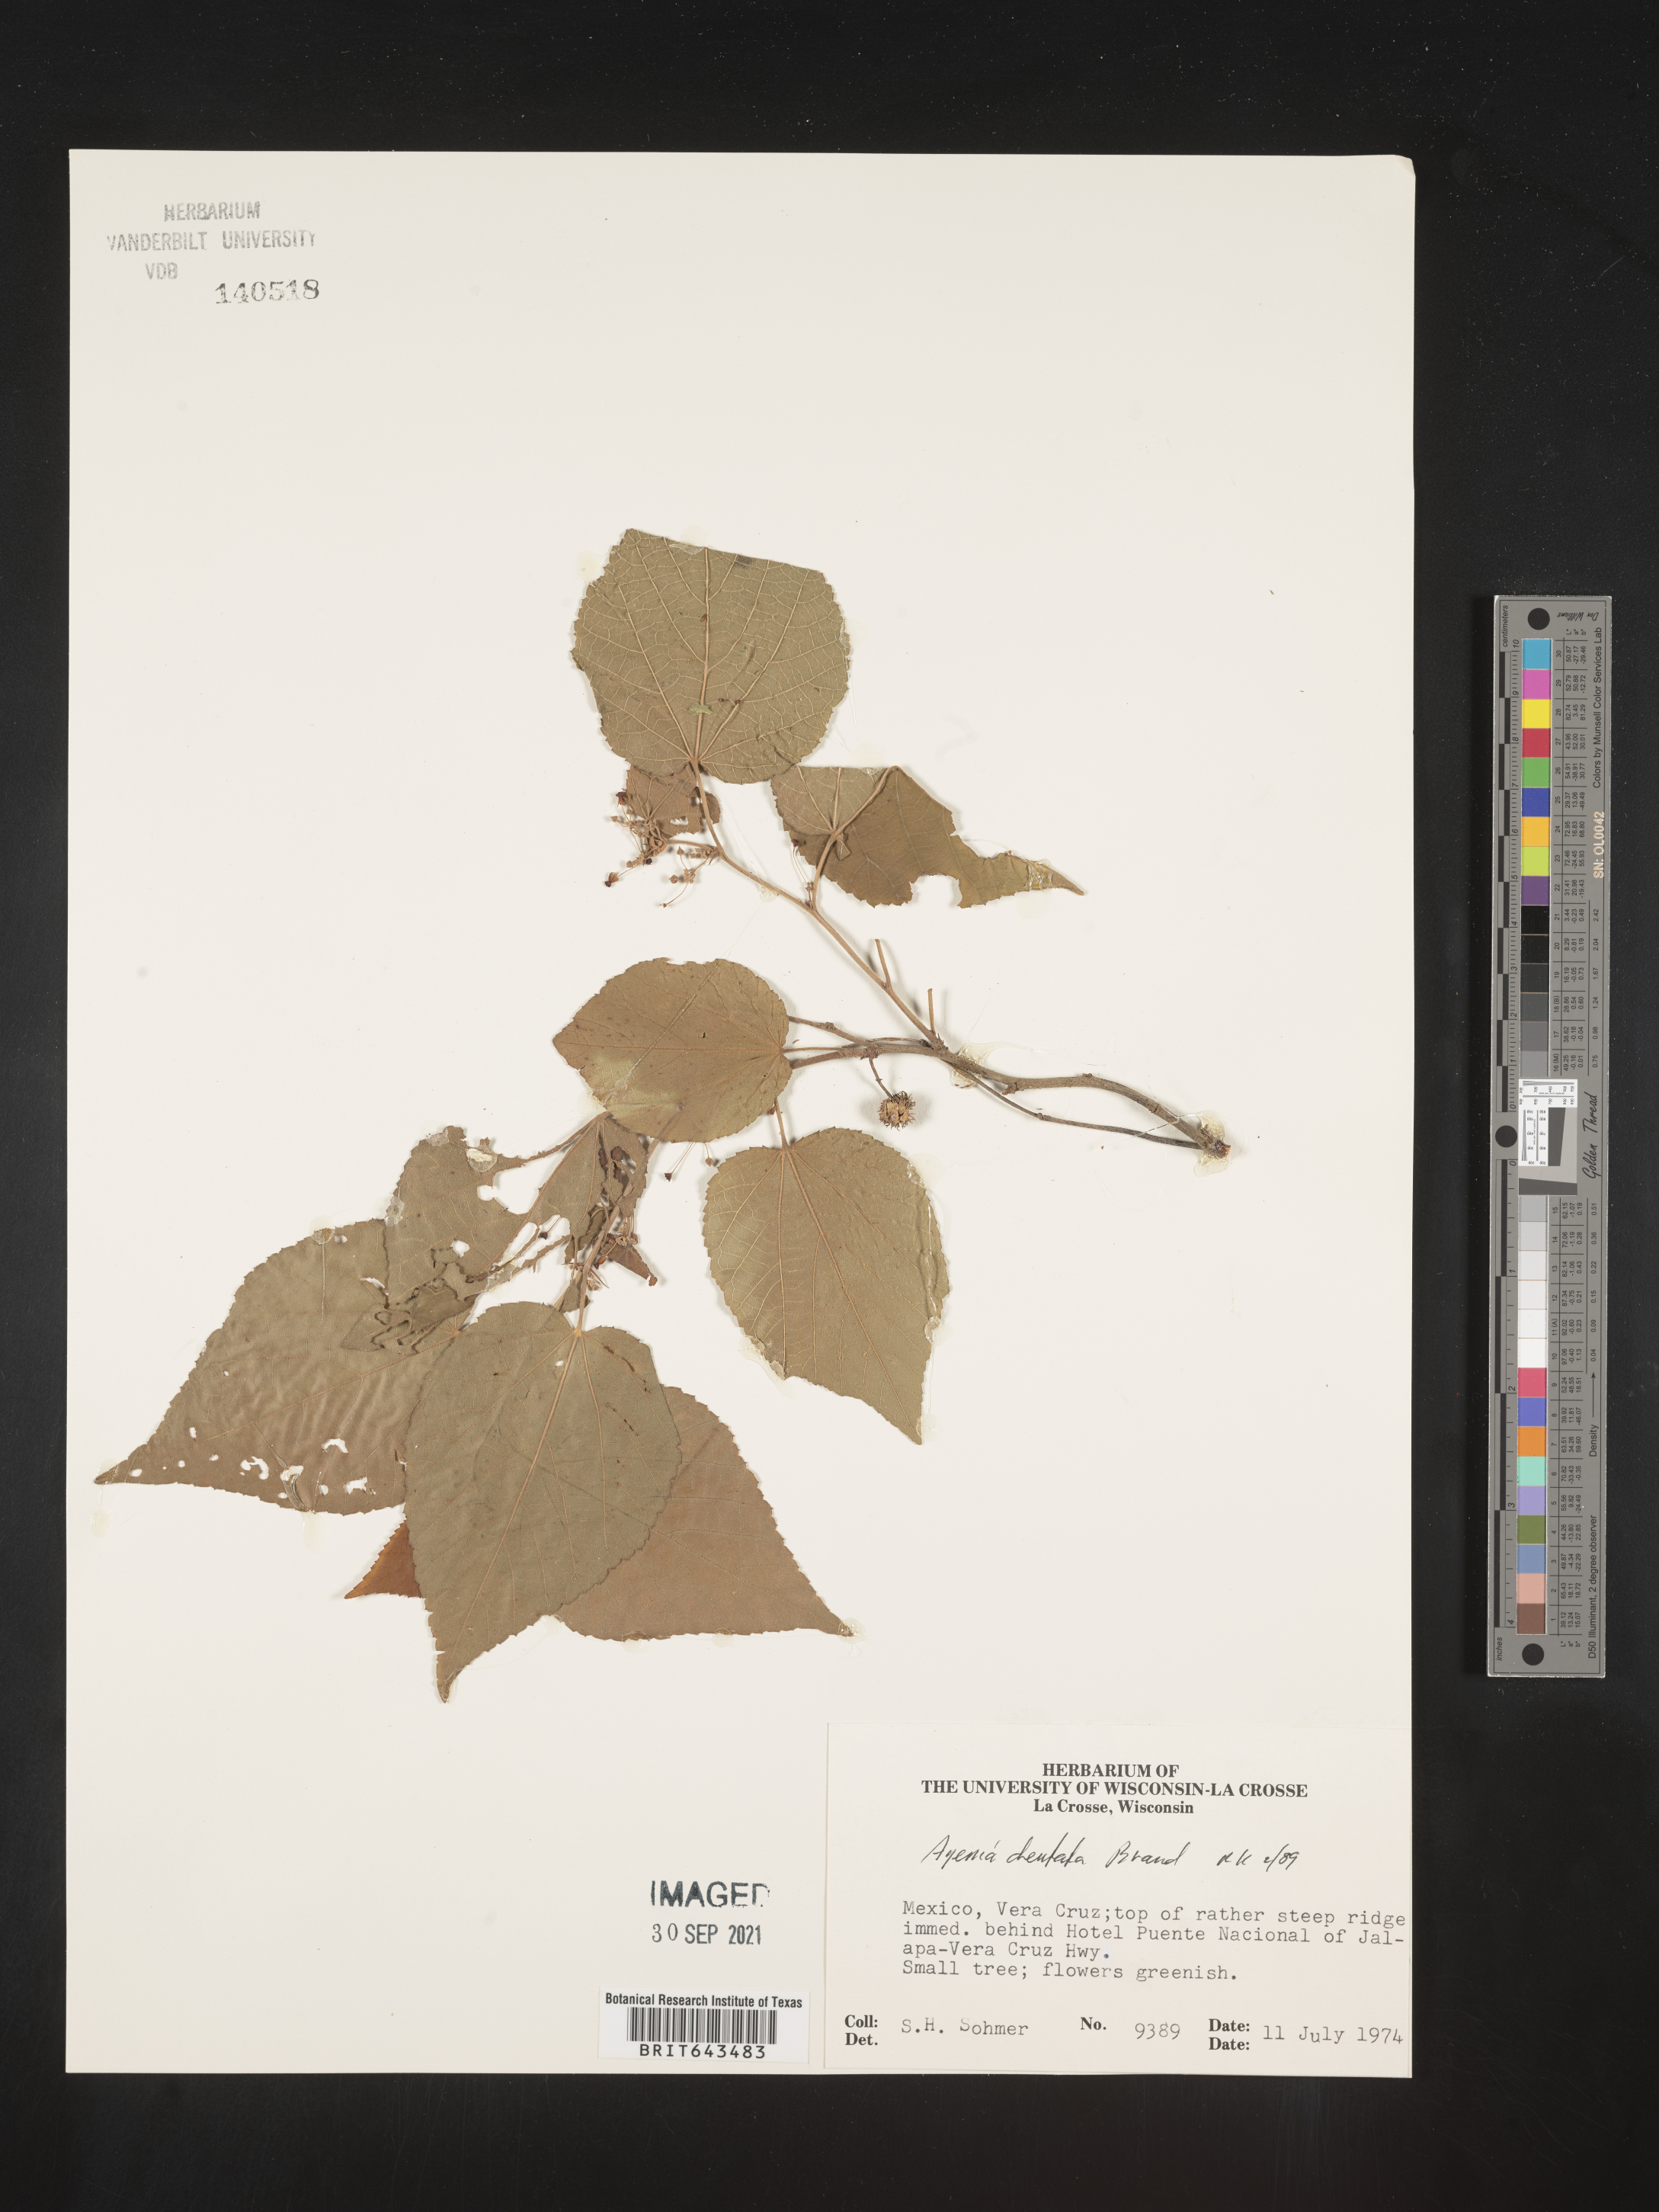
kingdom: Plantae
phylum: Tracheophyta
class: Magnoliopsida
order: Malvales
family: Malvaceae
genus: Ayenia
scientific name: Ayenia
